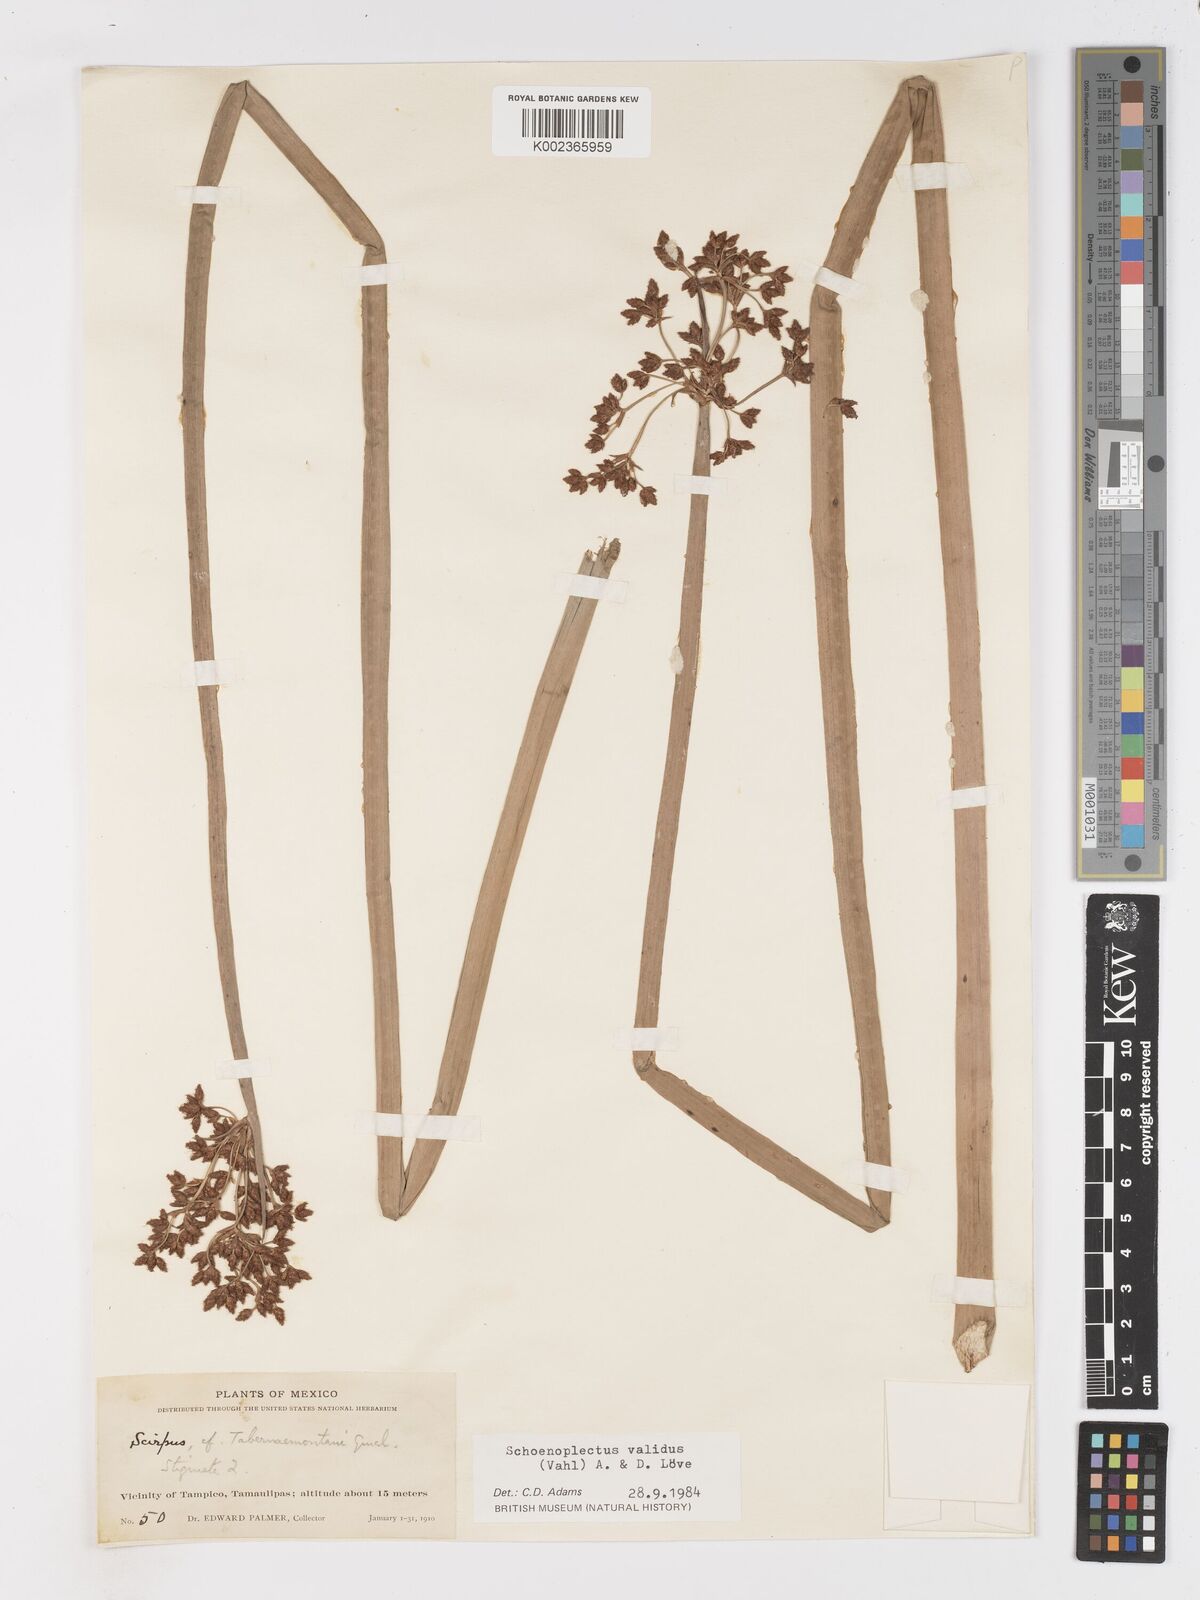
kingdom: Plantae
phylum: Tracheophyta
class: Liliopsida
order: Poales
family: Cyperaceae
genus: Schoenoplectus
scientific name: Schoenoplectus tabernaemontani
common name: Grey club-rush
